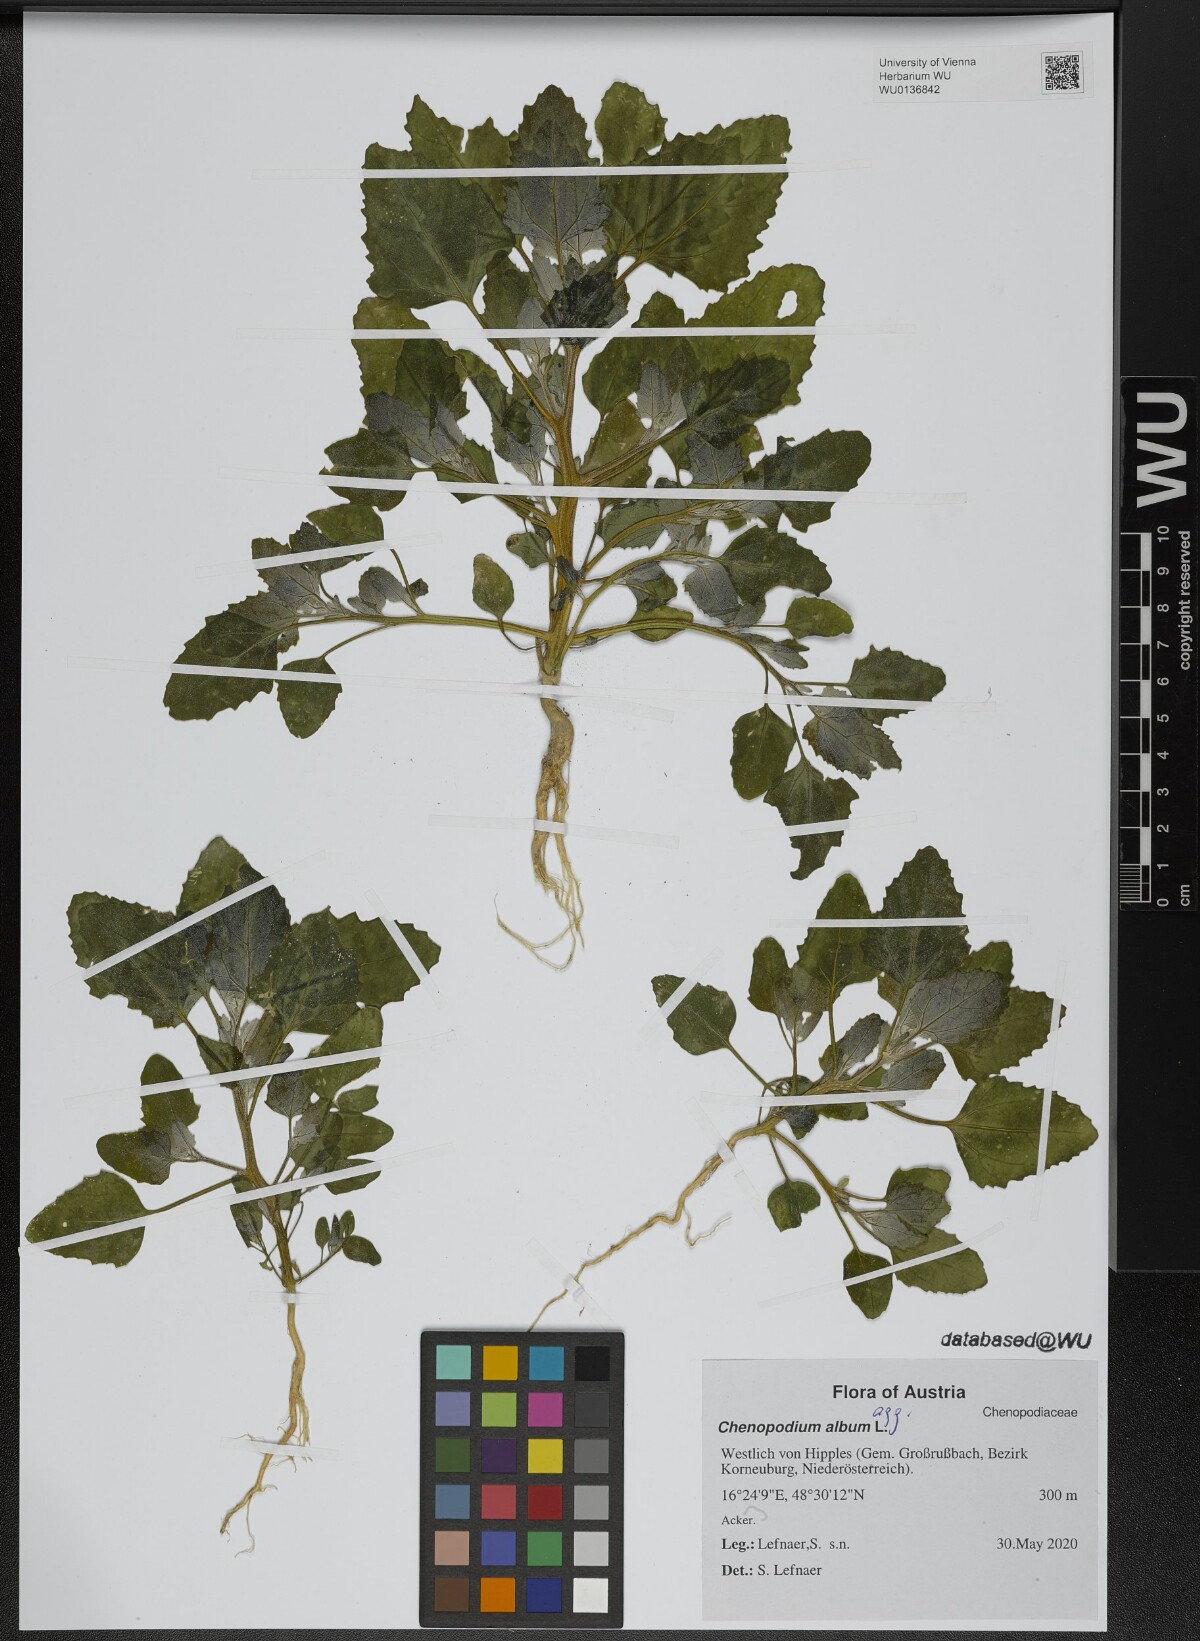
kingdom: Plantae
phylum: Tracheophyta
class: Magnoliopsida
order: Caryophyllales
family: Amaranthaceae
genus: Chenopodium
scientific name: Chenopodium album
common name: Fat-hen
